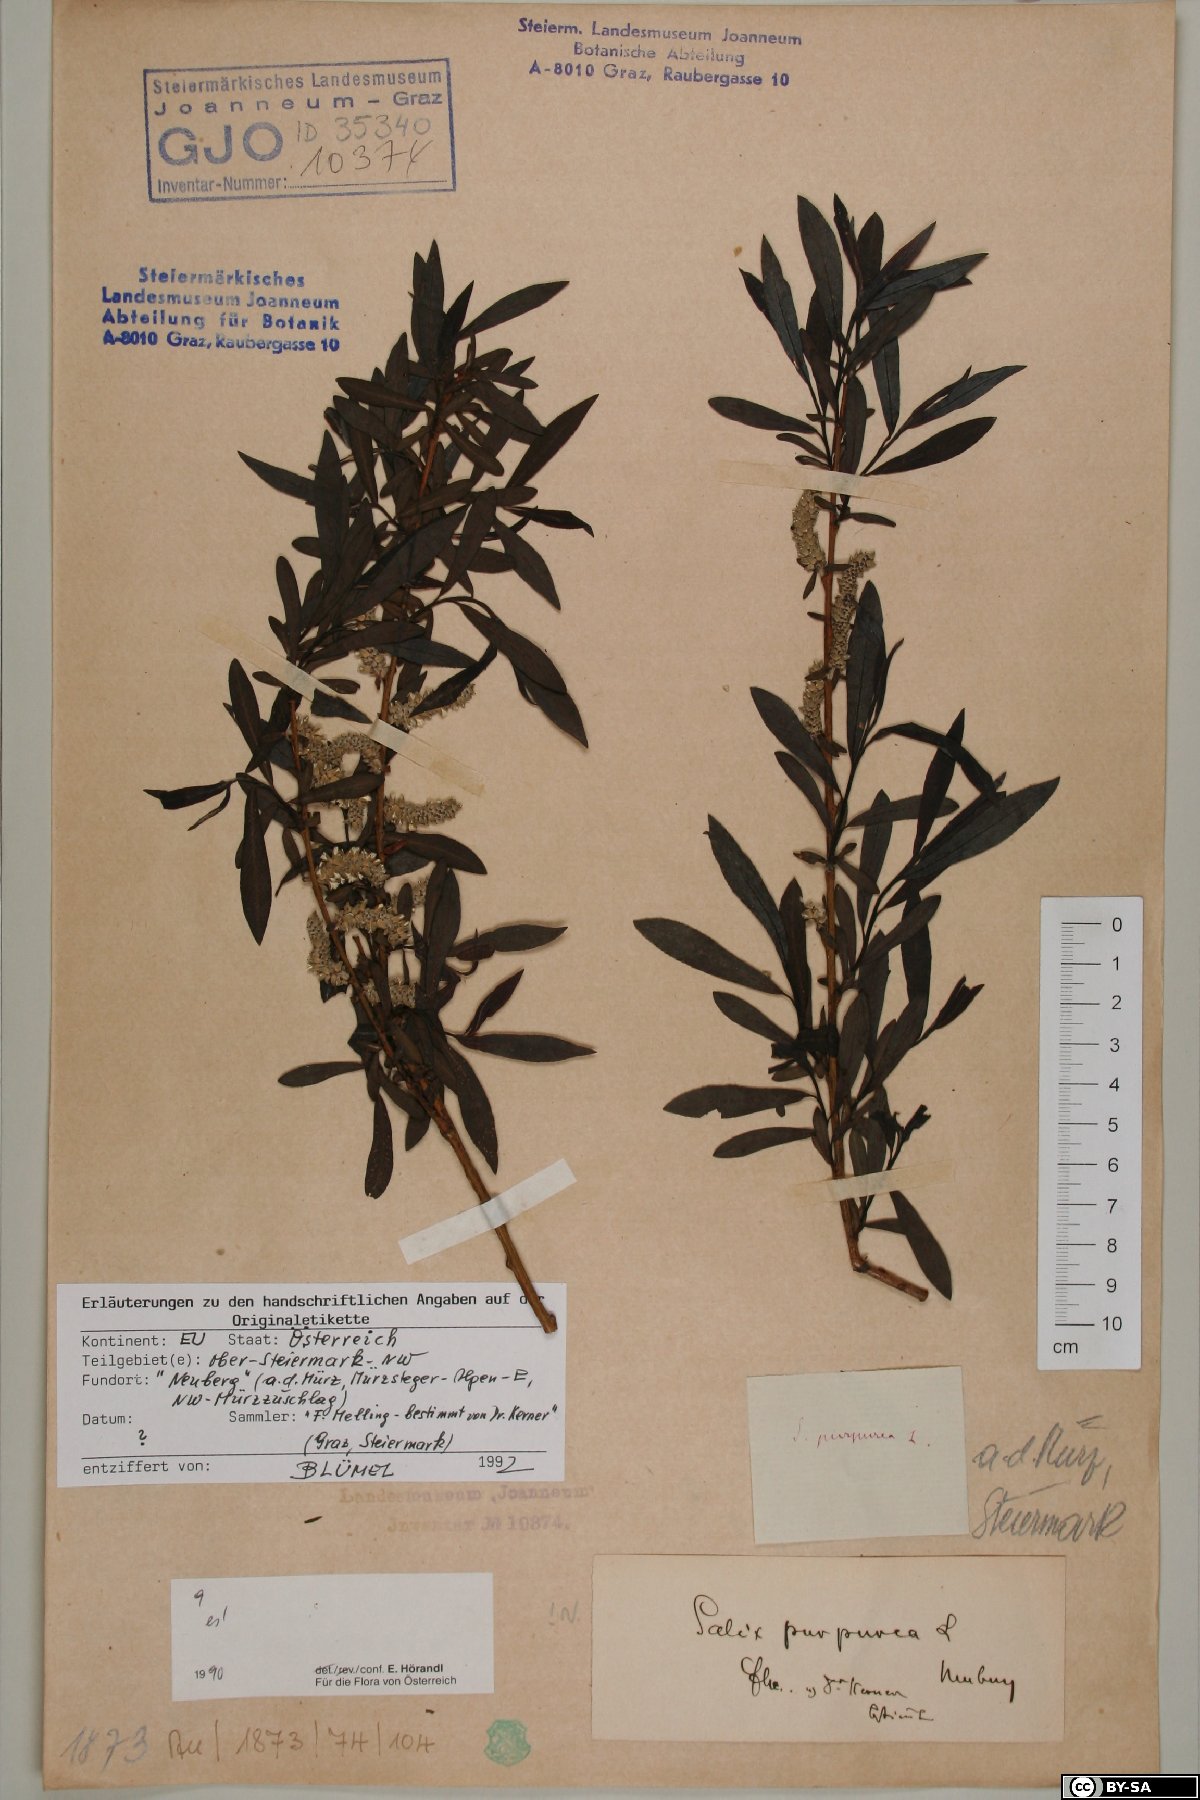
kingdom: Plantae
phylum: Tracheophyta
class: Magnoliopsida
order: Malpighiales
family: Salicaceae
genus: Salix
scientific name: Salix purpurea
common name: Purple willow
